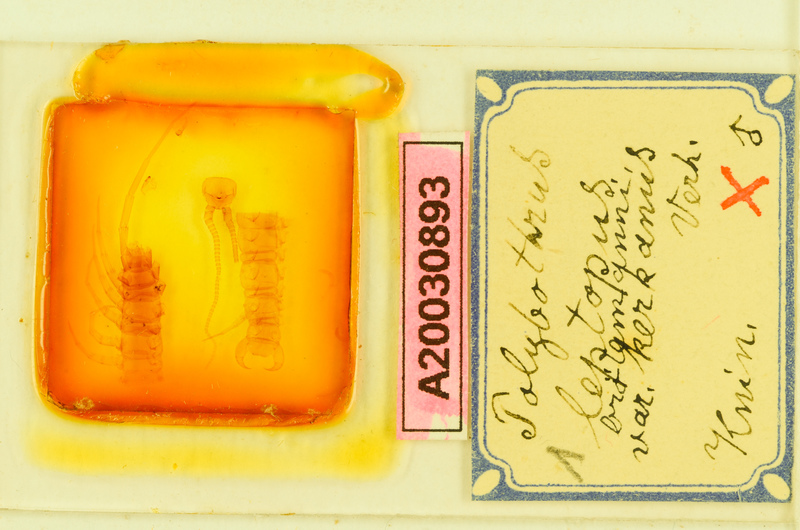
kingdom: Animalia
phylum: Arthropoda
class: Chilopoda
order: Lithobiomorpha
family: Lithobiidae
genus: Polybothrus
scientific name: Polybothrus leptopus
